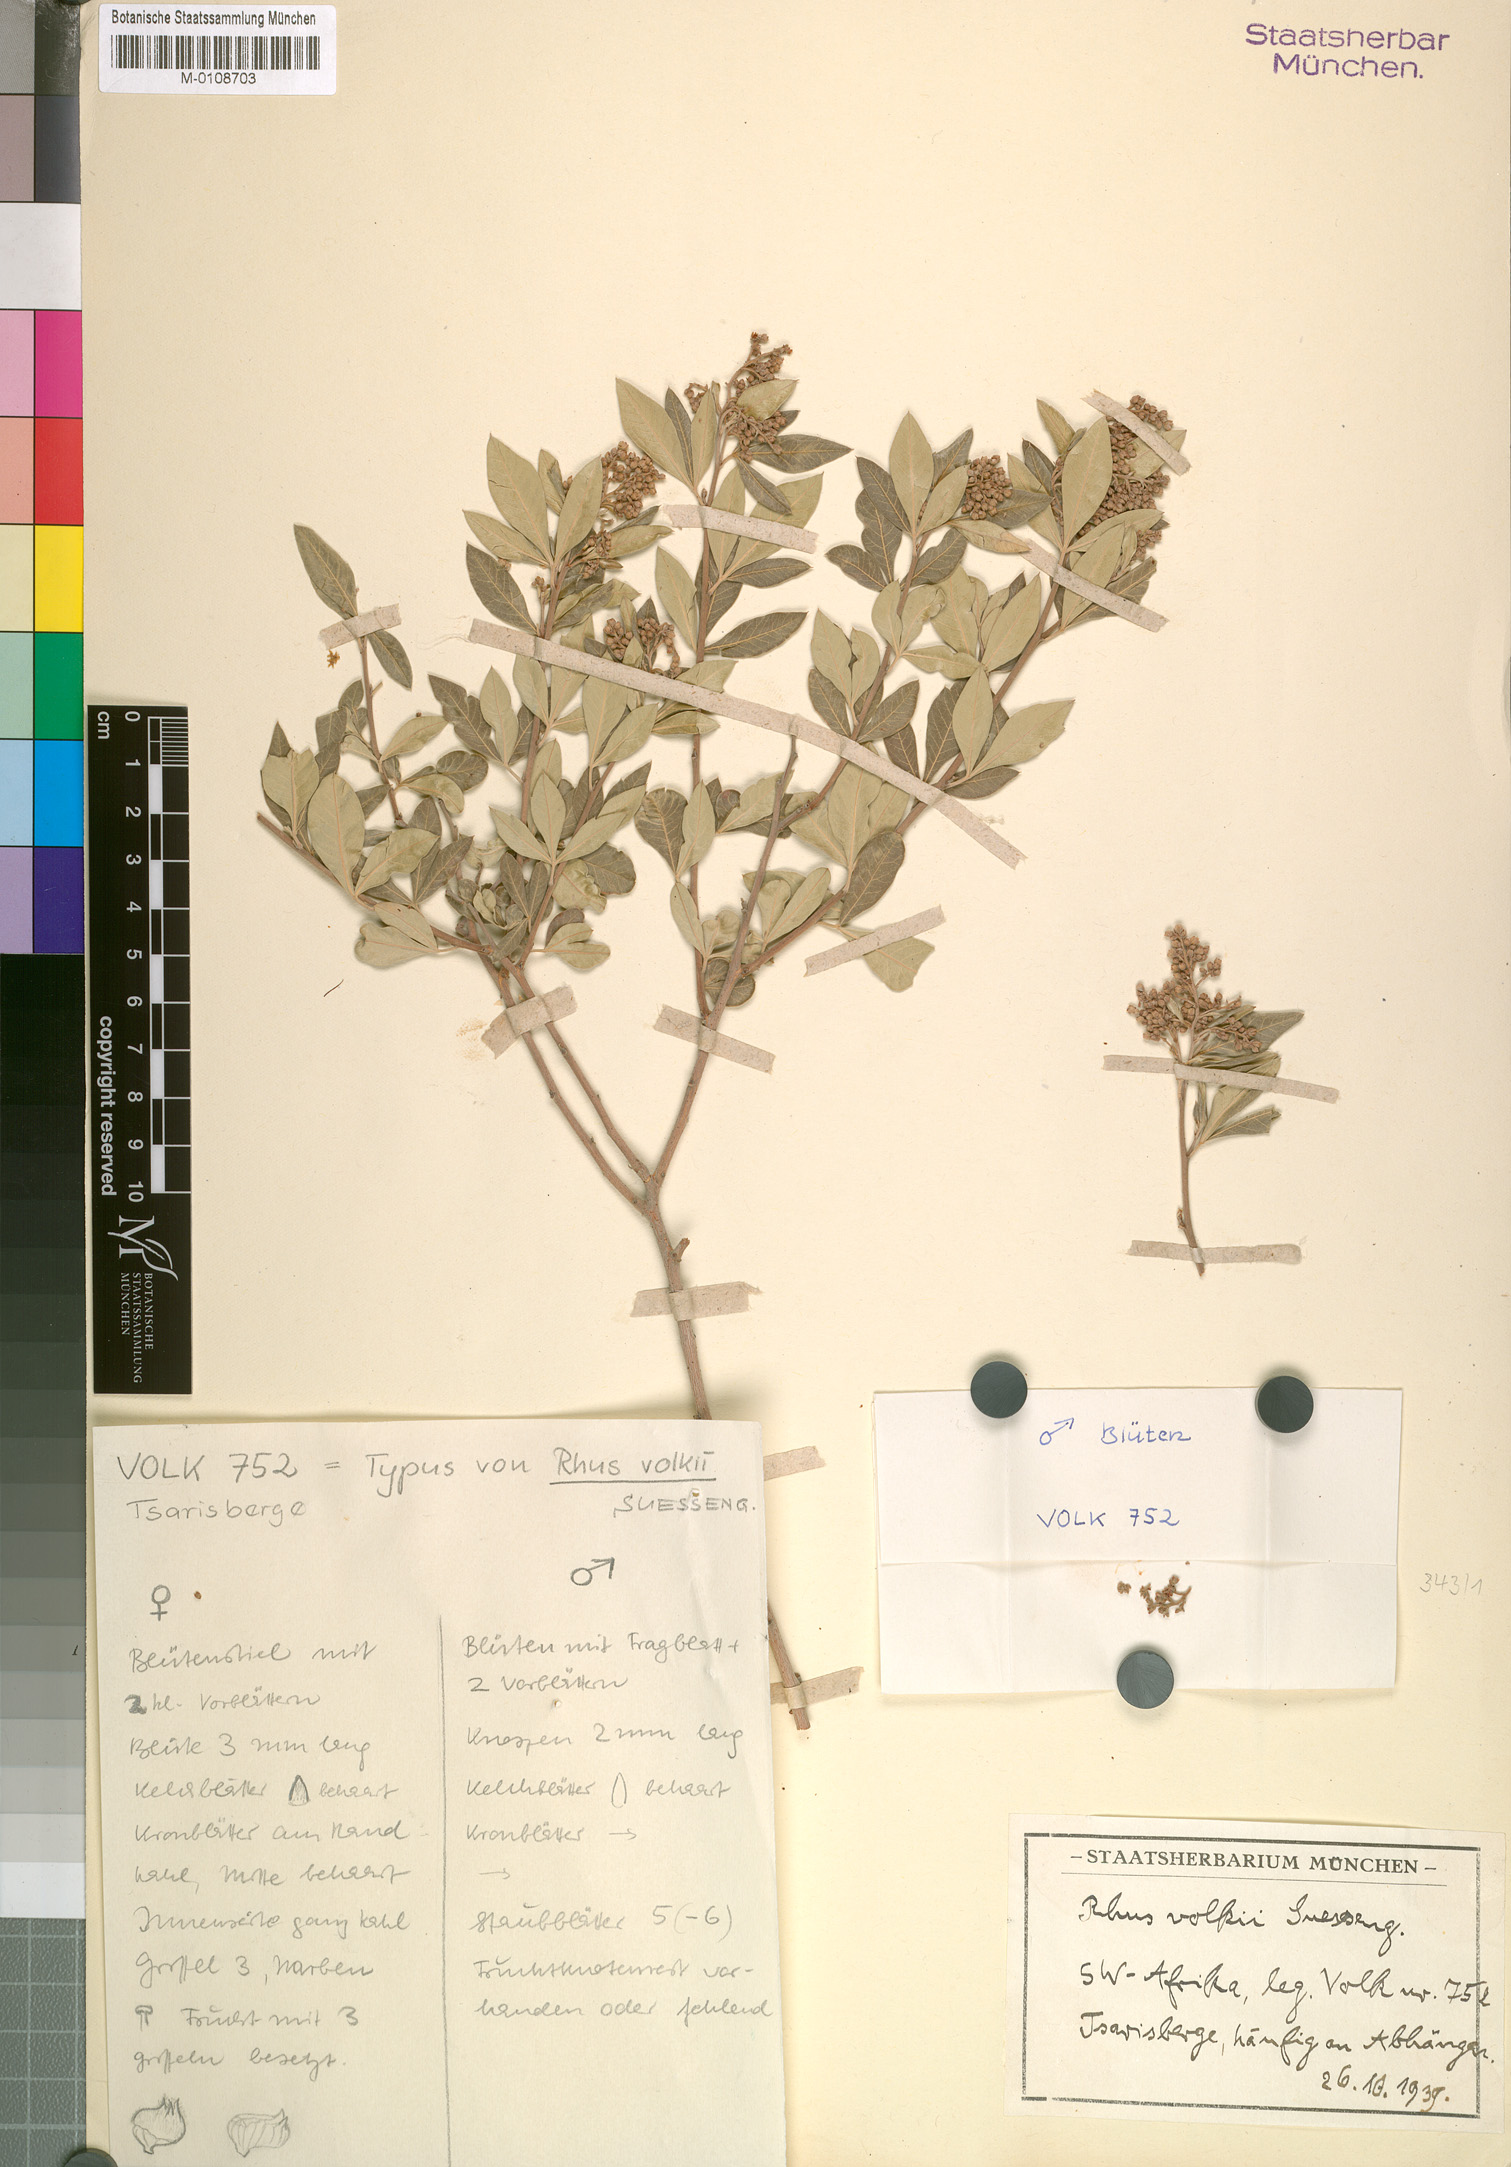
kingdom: Plantae
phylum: Tracheophyta
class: Magnoliopsida
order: Sapindales
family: Anacardiaceae
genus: Searsia
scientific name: Searsia volkii
